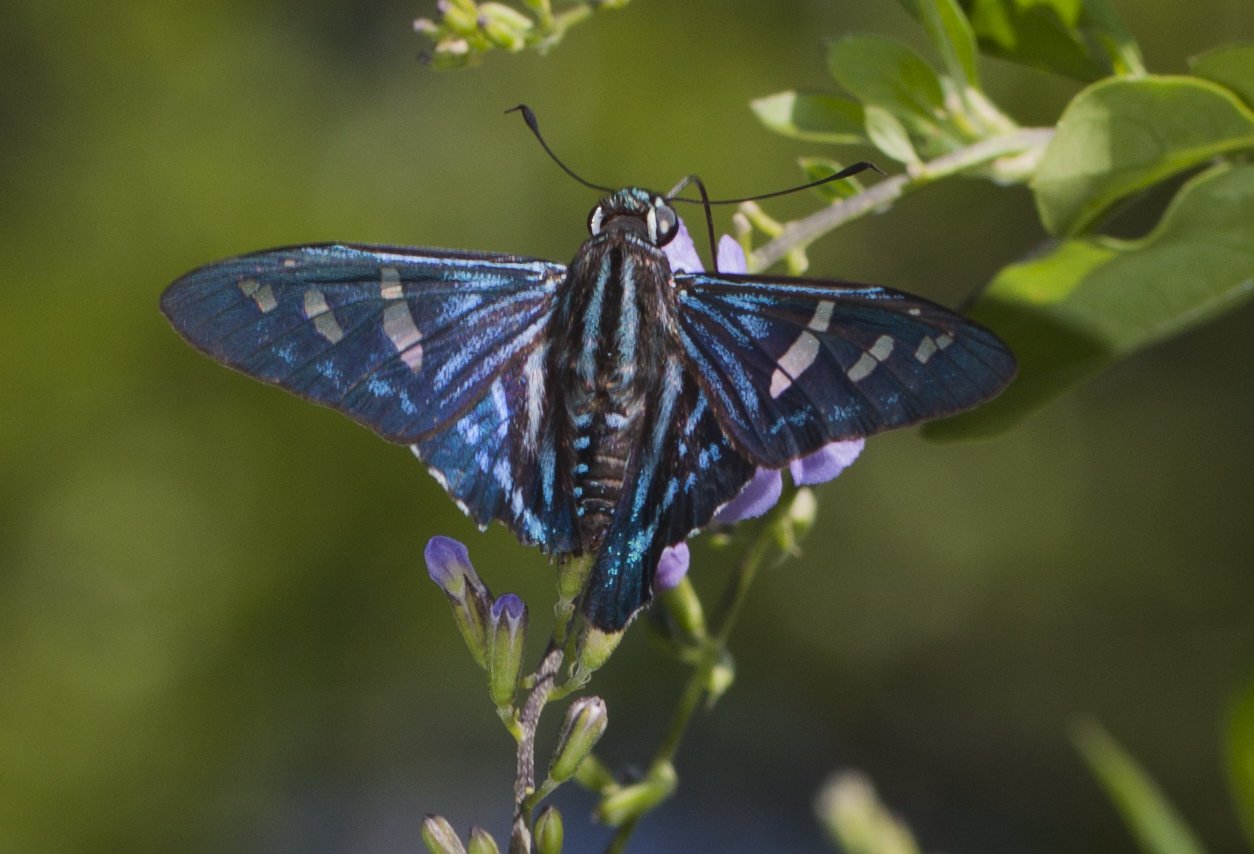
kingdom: Animalia
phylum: Arthropoda
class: Insecta
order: Lepidoptera
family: Hesperiidae
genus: Phocides
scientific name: Phocides pigmalion
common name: Mangrove Skipper
